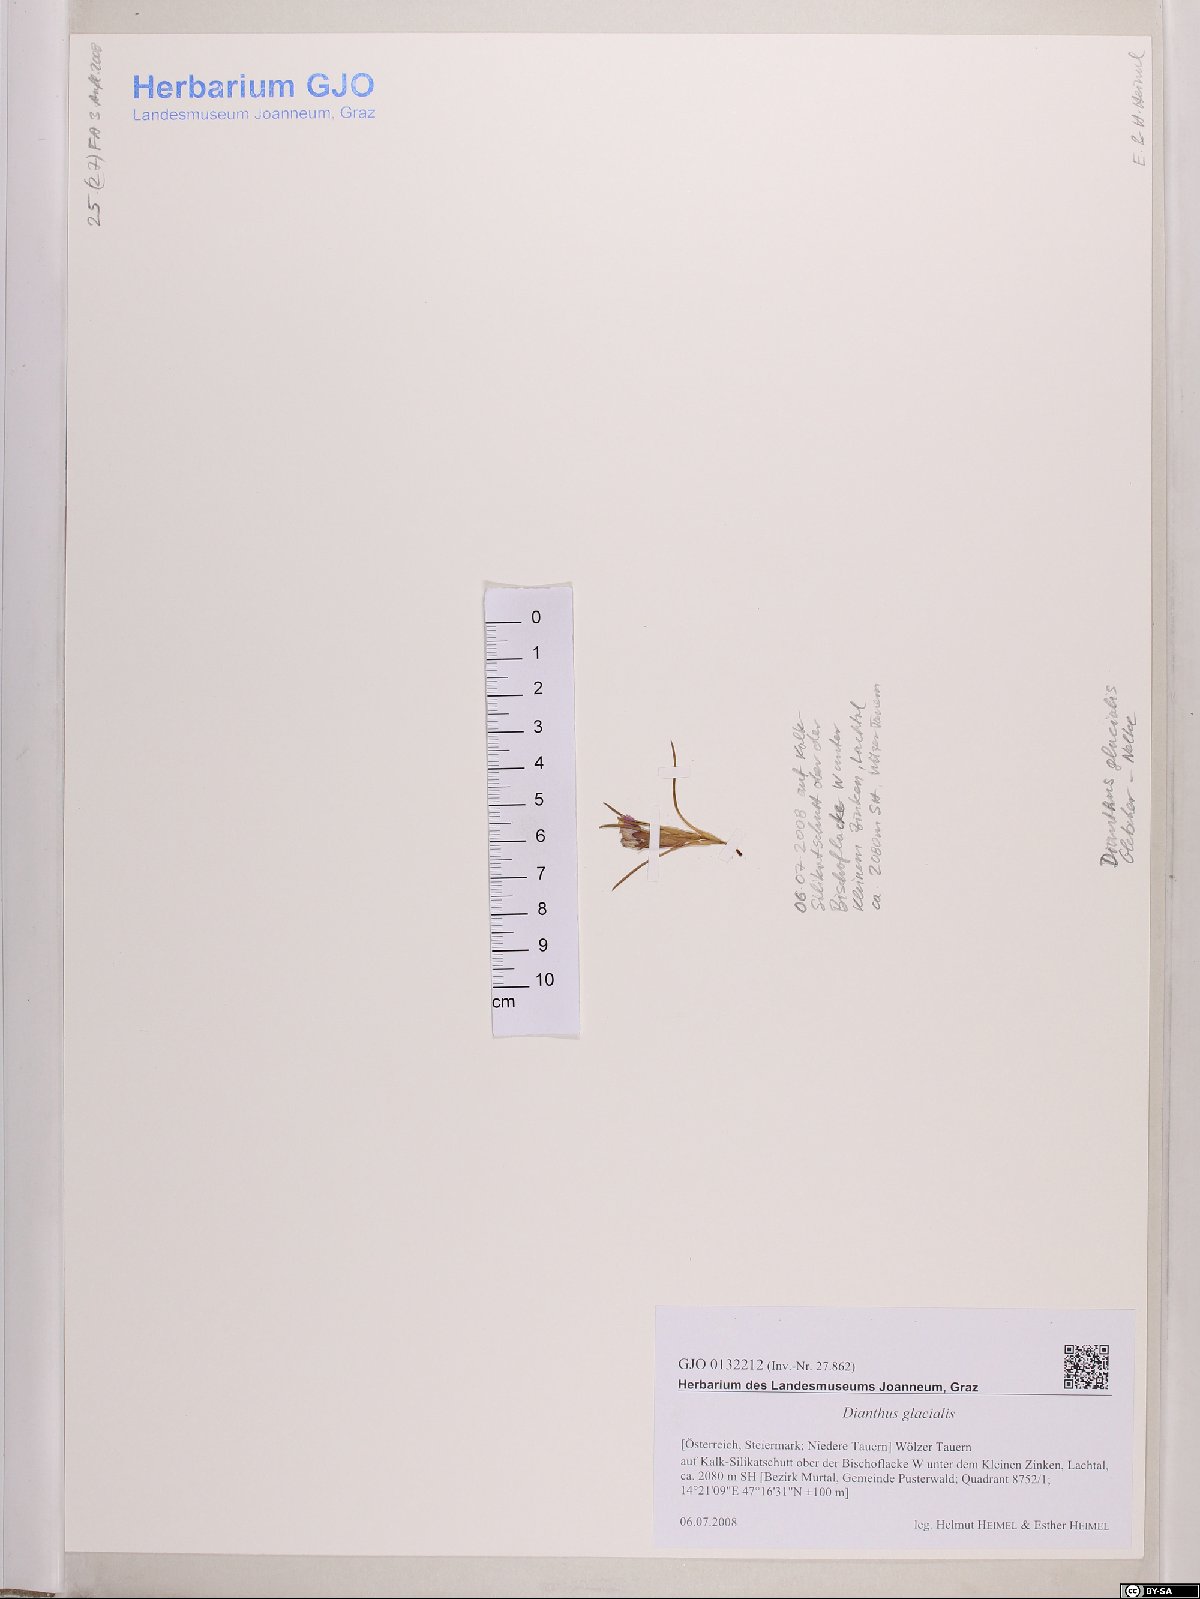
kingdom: Plantae
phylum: Tracheophyta
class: Magnoliopsida
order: Caryophyllales
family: Caryophyllaceae
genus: Dianthus
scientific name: Dianthus glacialis
